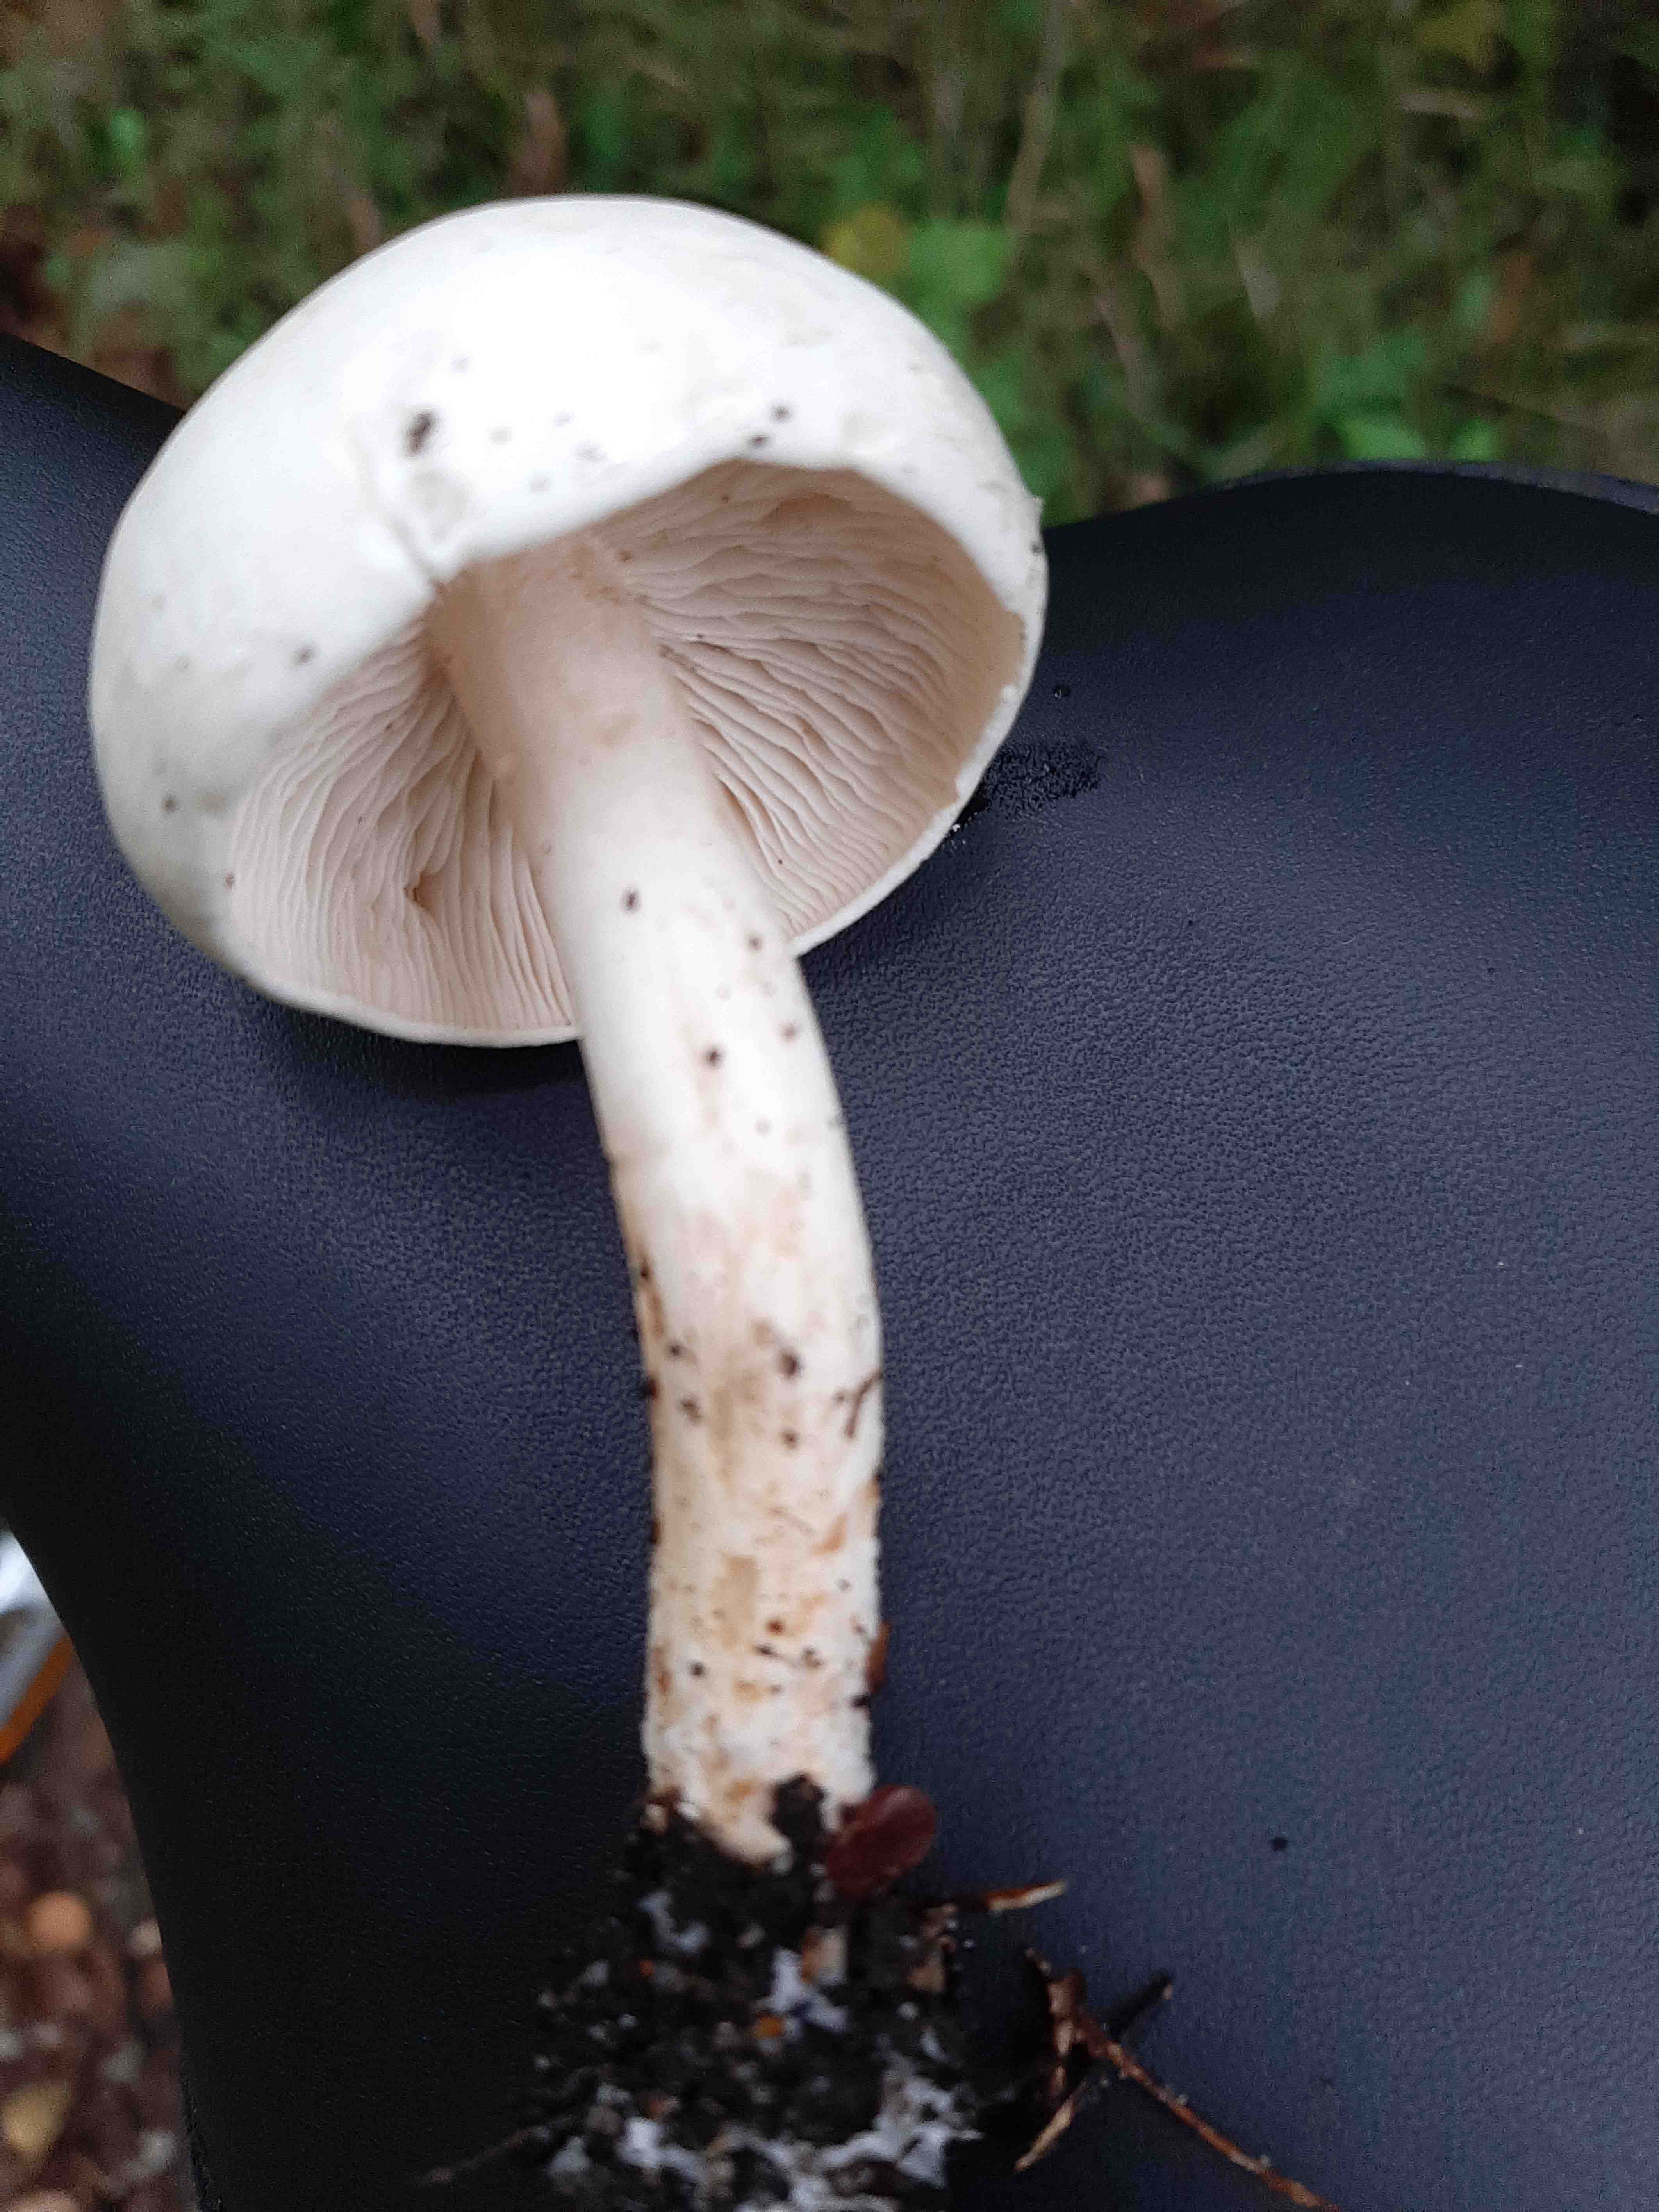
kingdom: Fungi
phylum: Basidiomycota
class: Agaricomycetes
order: Agaricales
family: Tricholomataceae
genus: Tricholoma
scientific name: Tricholoma
